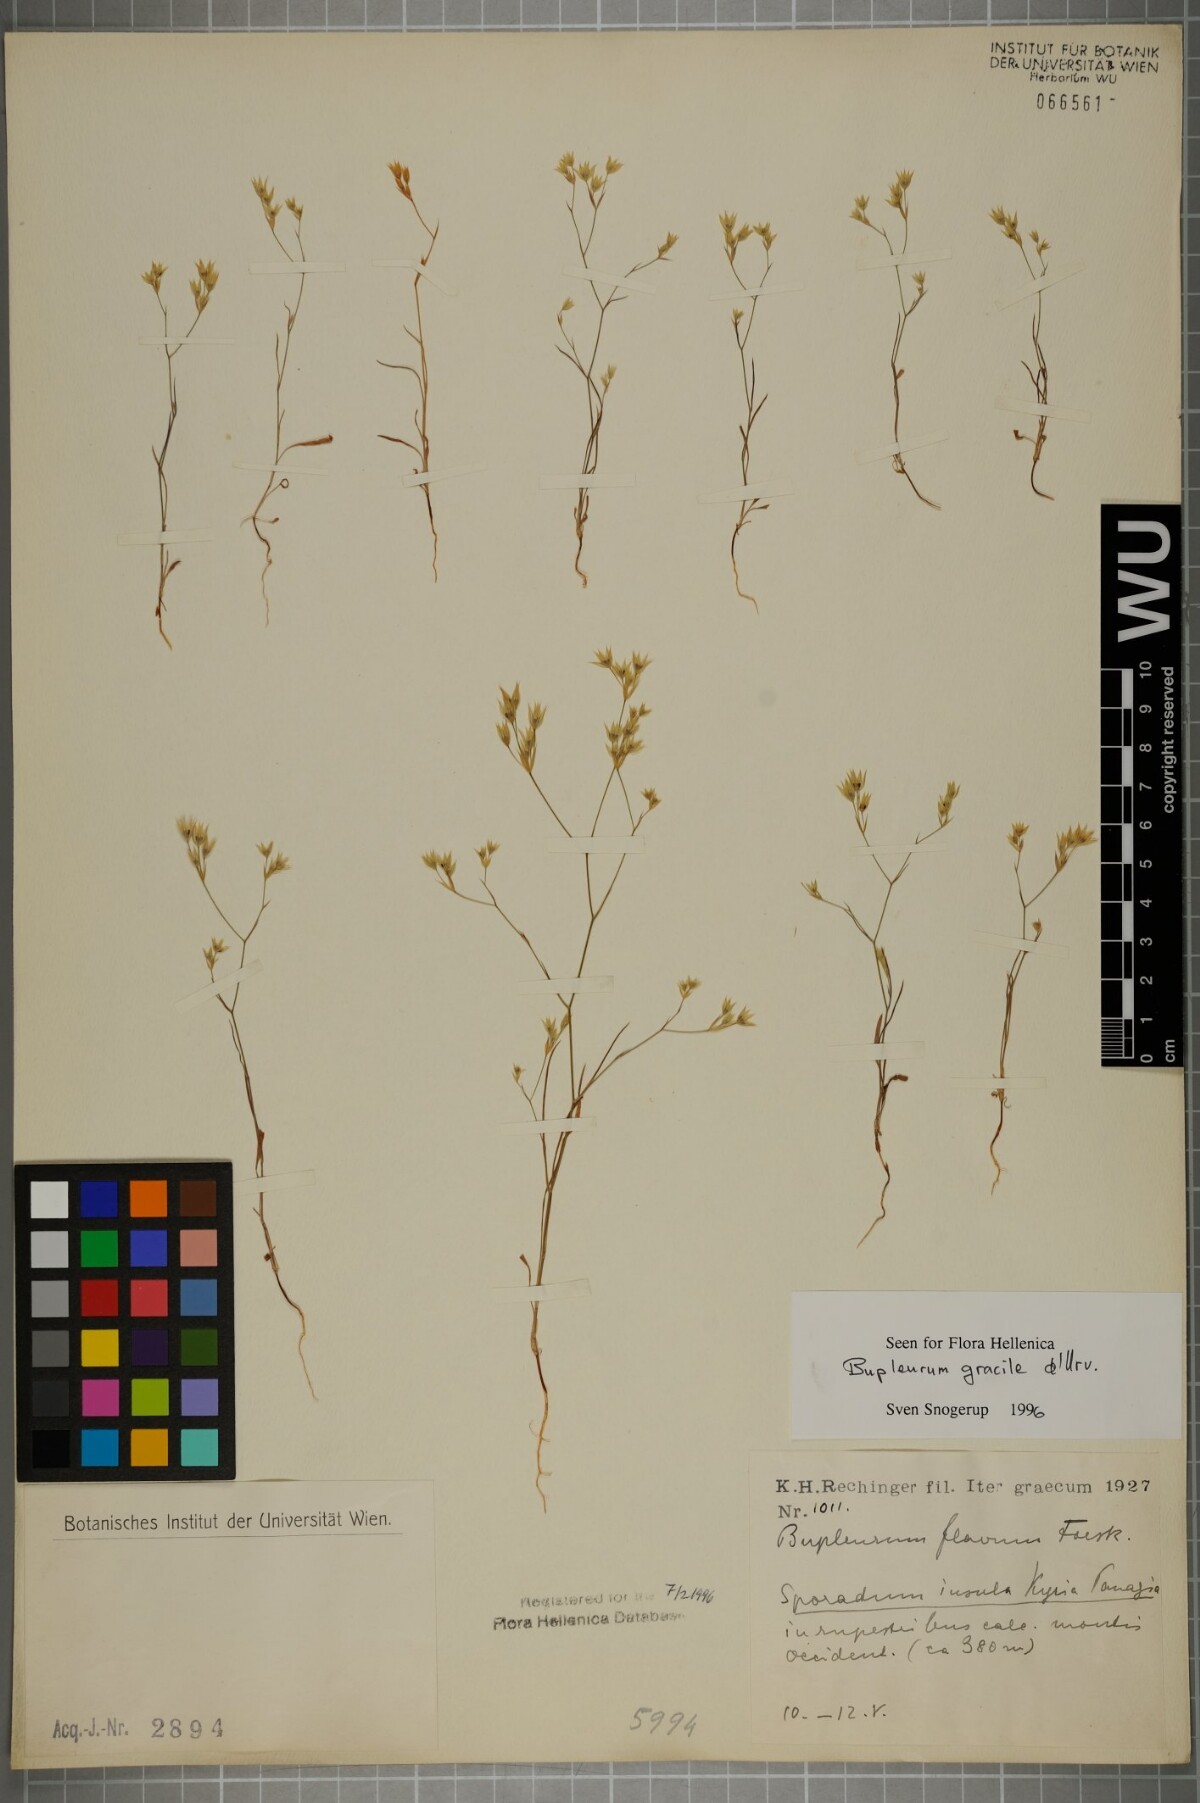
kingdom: Plantae
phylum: Tracheophyta
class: Magnoliopsida
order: Apiales
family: Apiaceae
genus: Bupleurum
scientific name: Bupleurum gracile
